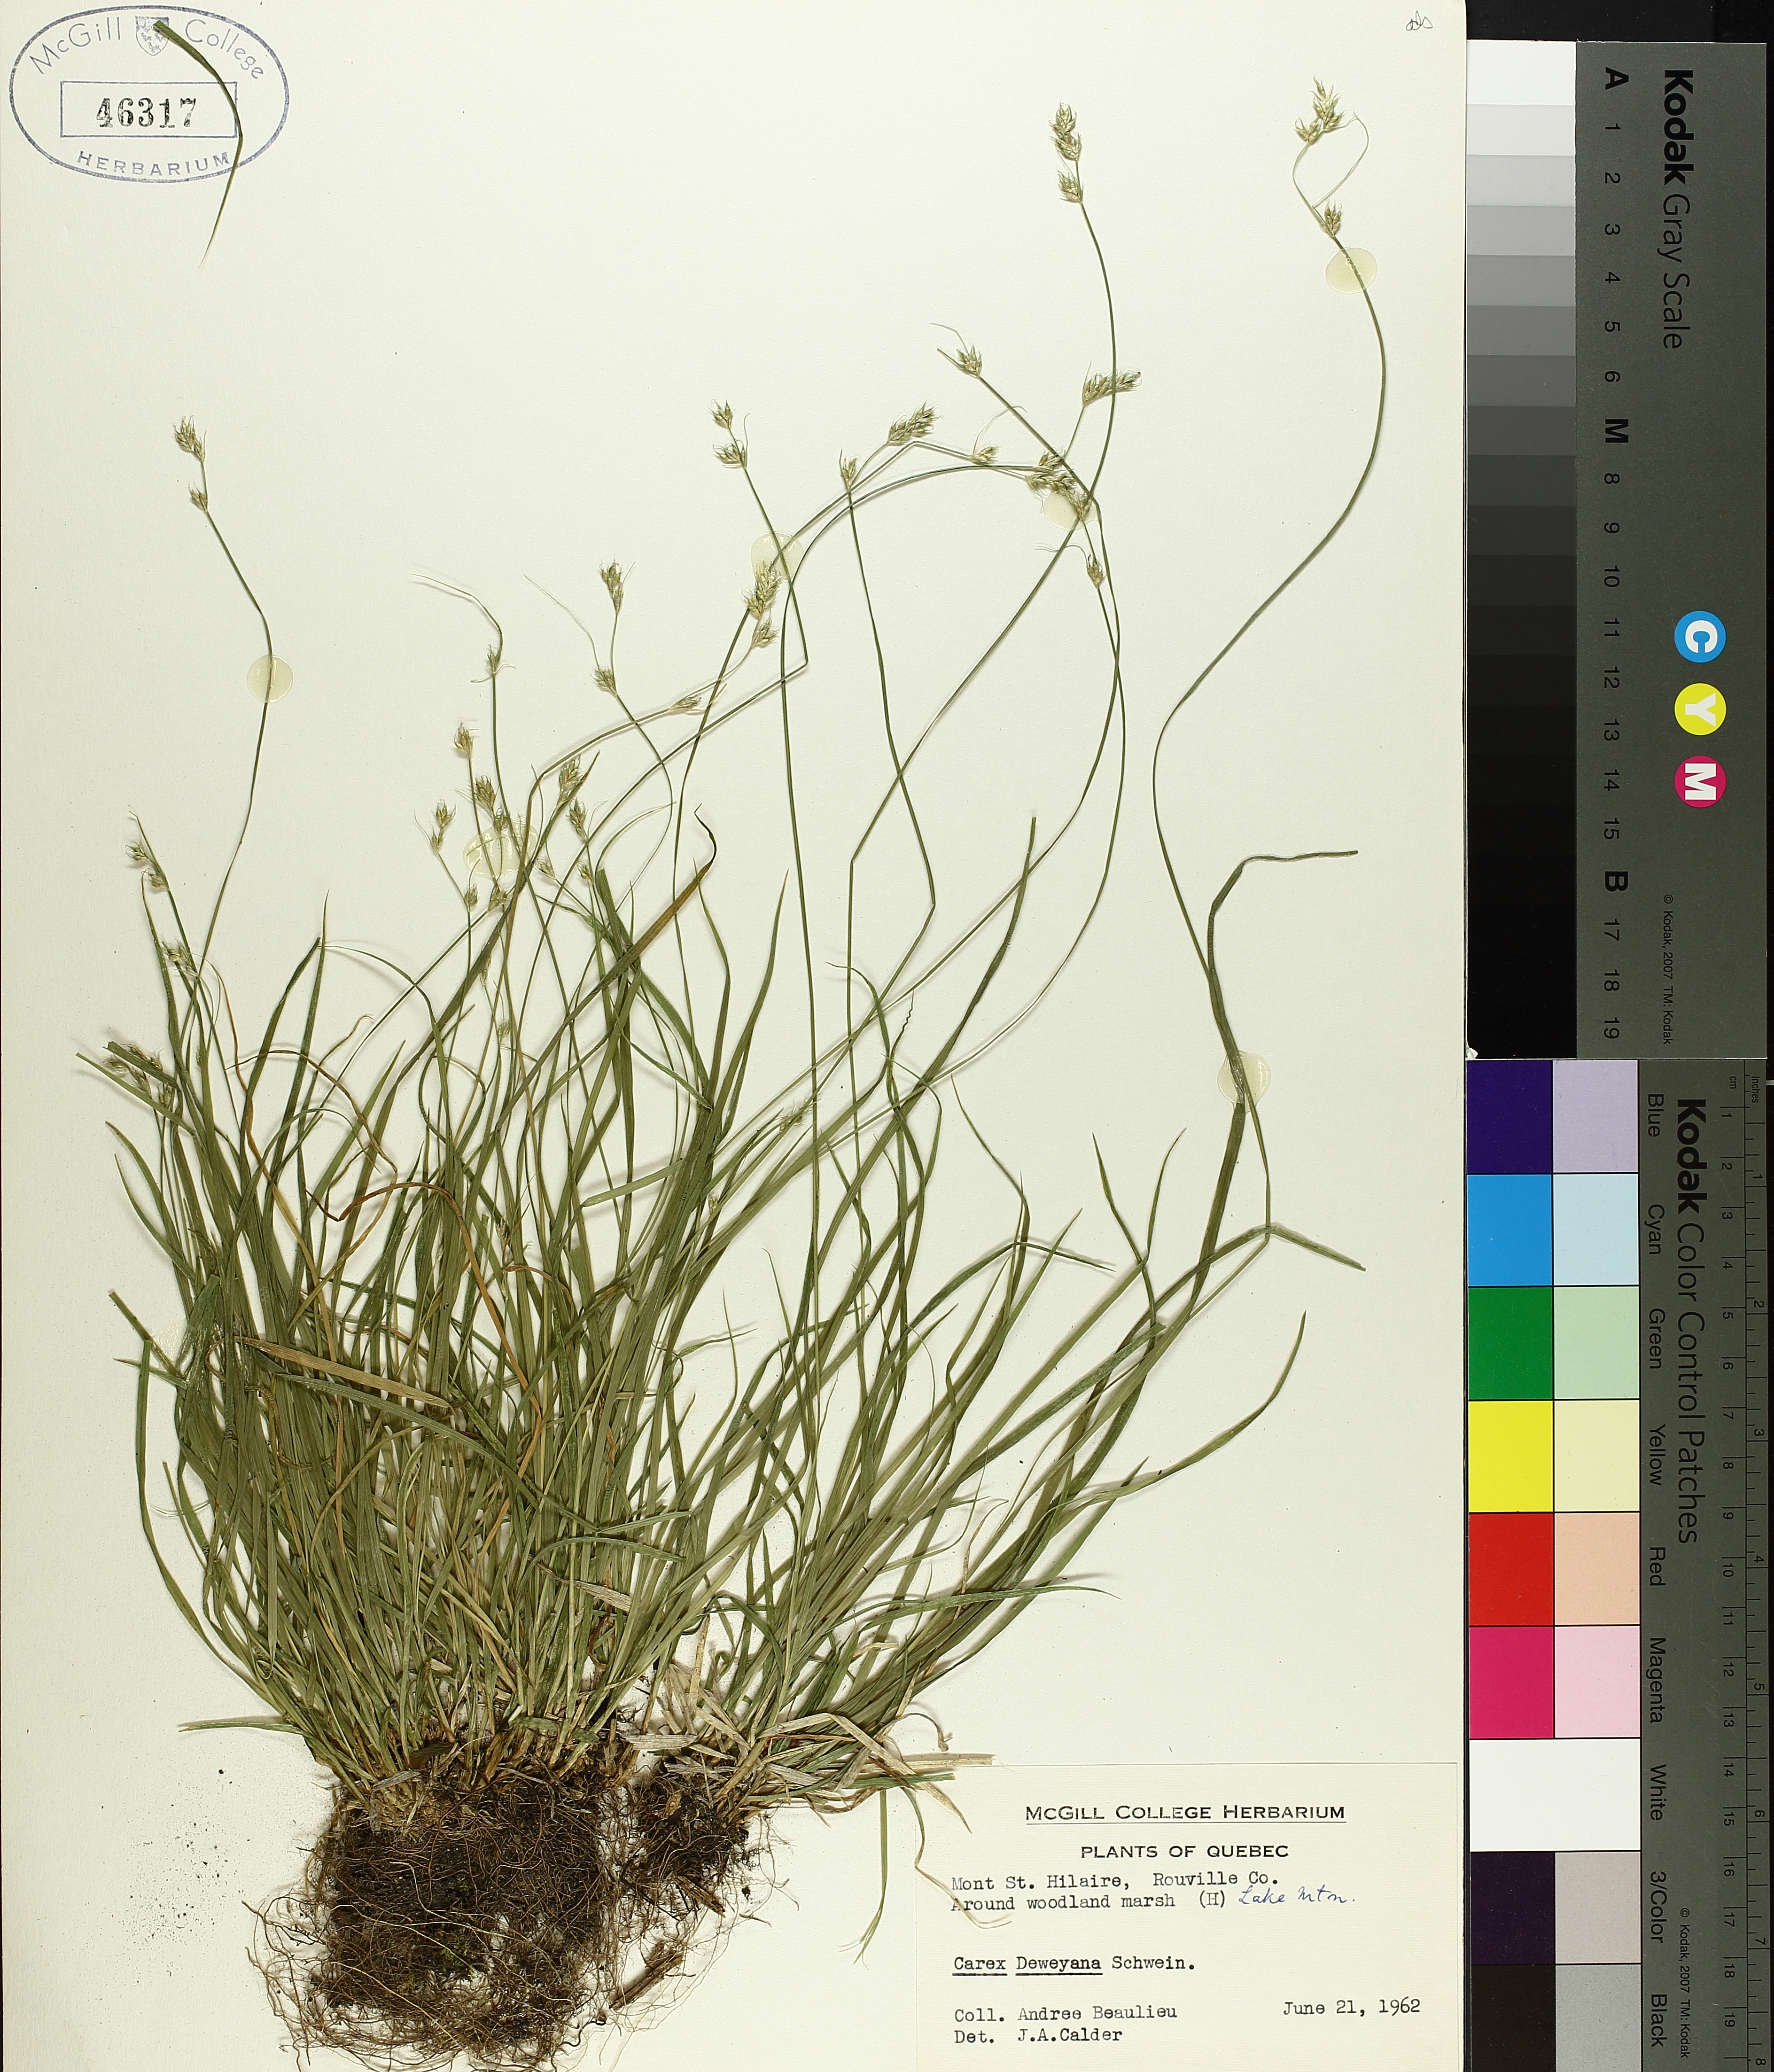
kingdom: Plantae
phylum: Tracheophyta
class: Liliopsida
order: Poales
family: Cyperaceae
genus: Carex
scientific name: Carex deweyana
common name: Dewey's sedge
